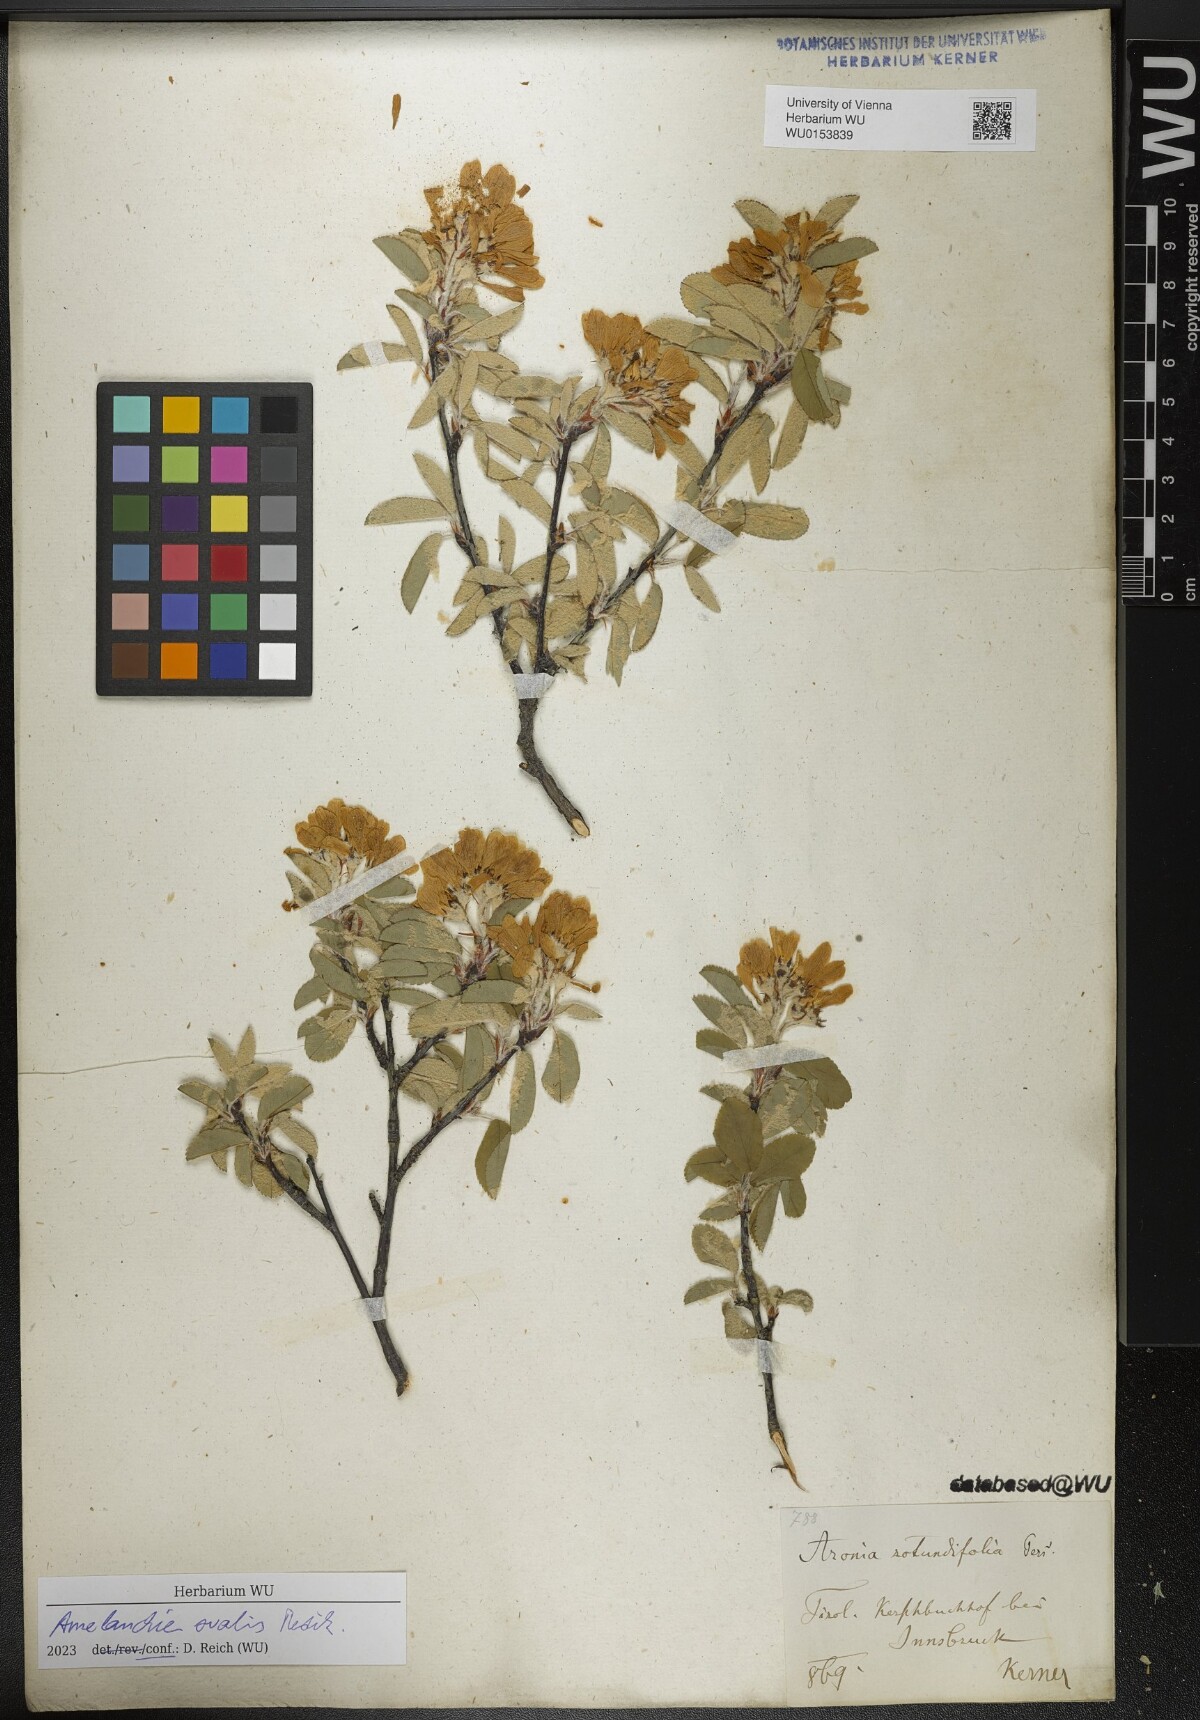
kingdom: Plantae
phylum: Tracheophyta
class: Magnoliopsida
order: Rosales
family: Rosaceae
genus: Amelanchier
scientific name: Amelanchier ovalis
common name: Serviceberry
